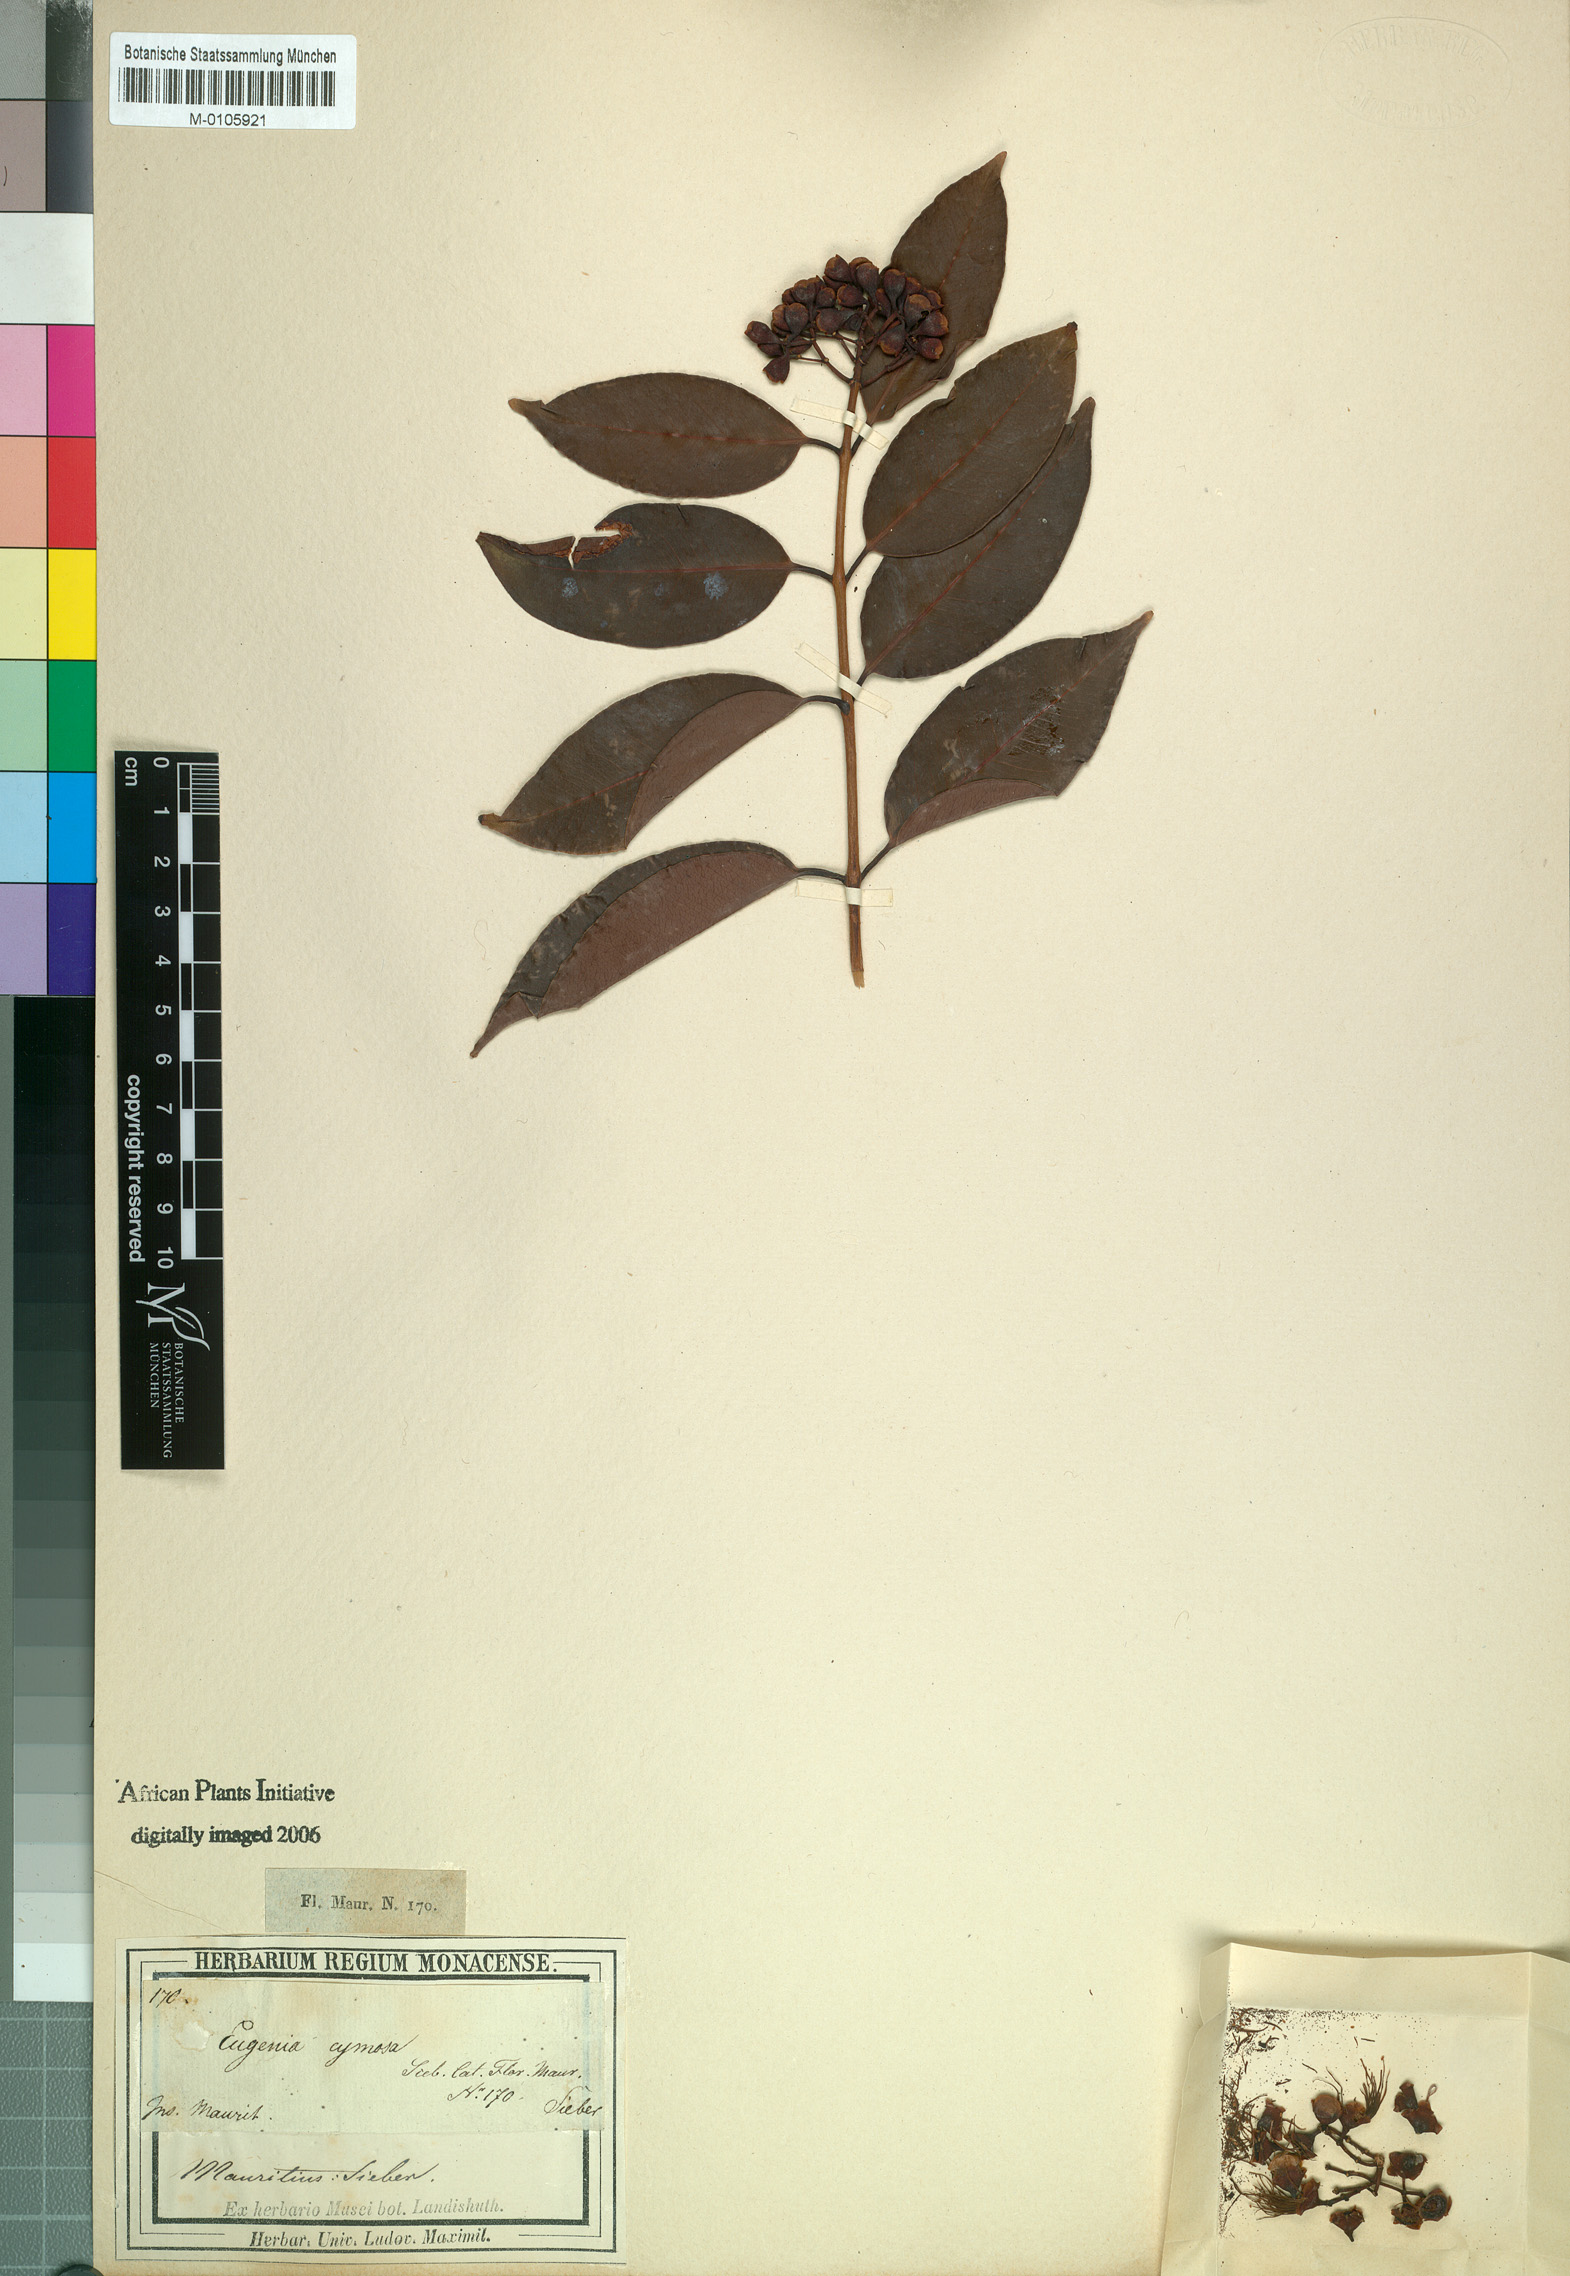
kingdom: Plantae
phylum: Tracheophyta
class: Magnoliopsida
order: Myrtales
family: Myrtaceae
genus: Eugenia
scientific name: Eugenia cymosa
